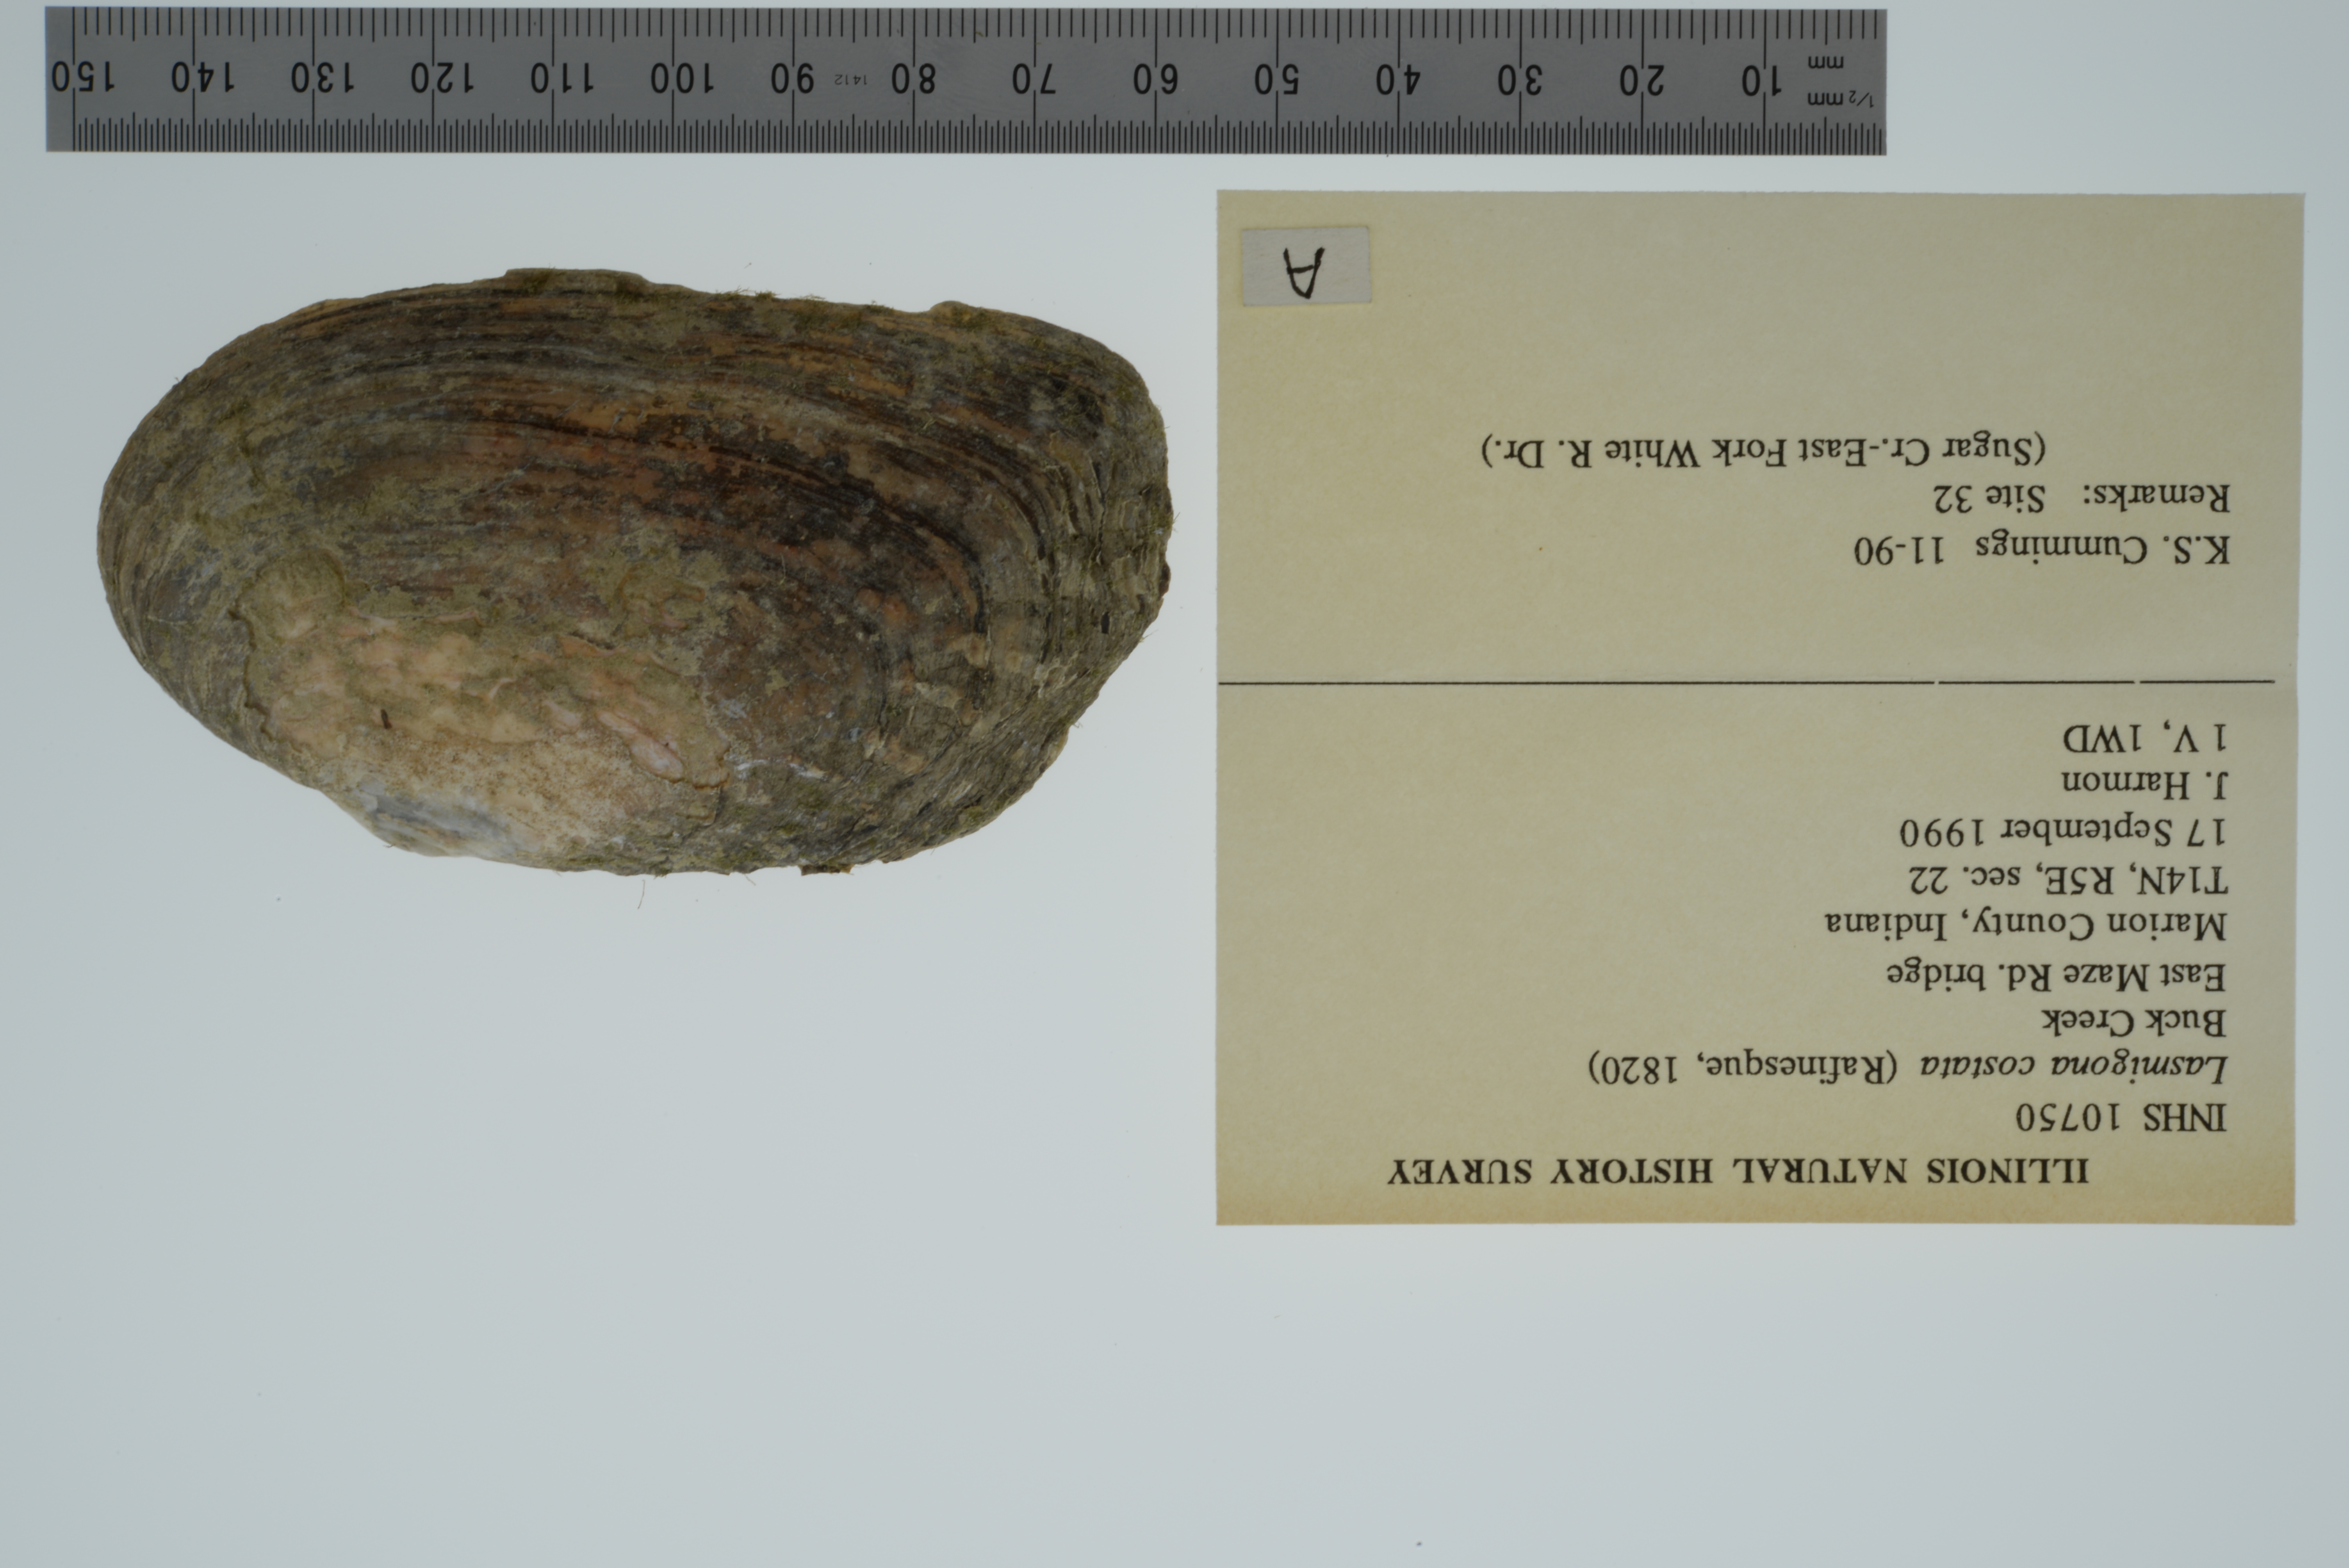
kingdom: Animalia
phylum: Mollusca
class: Bivalvia
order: Unionida
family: Unionidae
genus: Lasmigona
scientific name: Lasmigona costata
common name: Flutedshell
